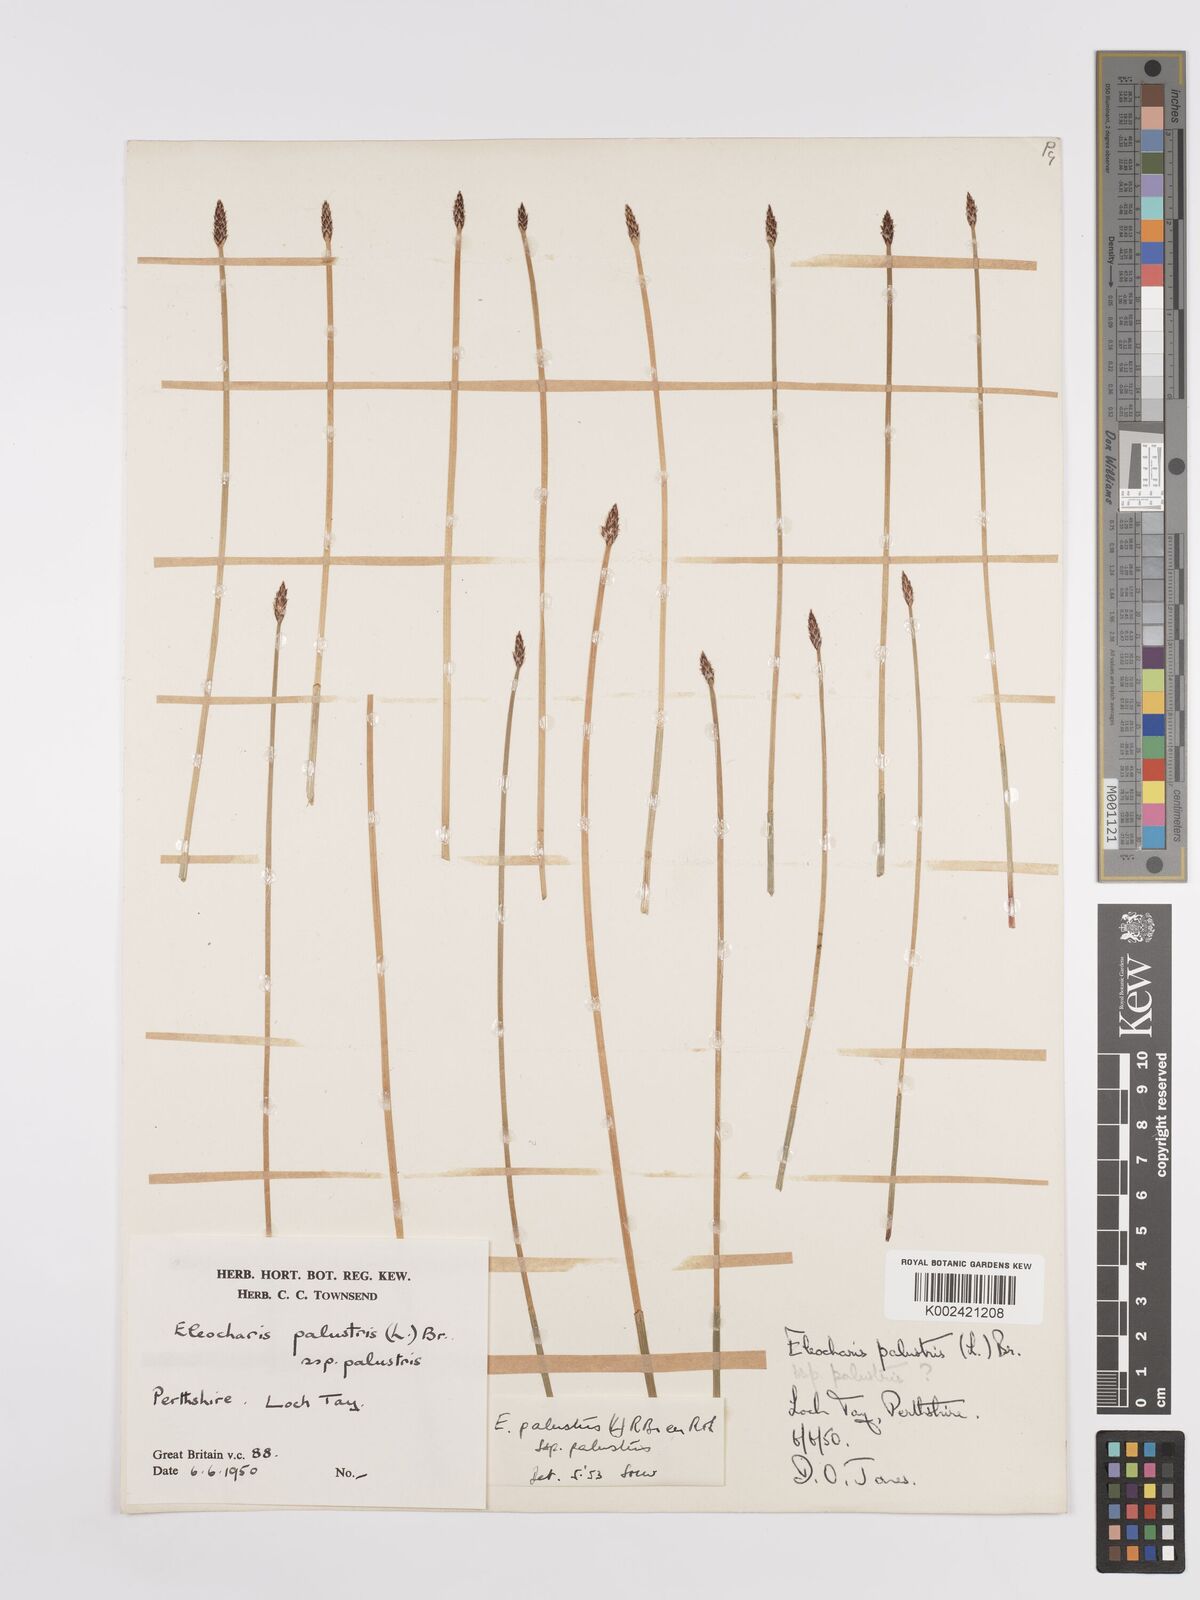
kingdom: Plantae
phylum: Tracheophyta
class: Liliopsida
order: Poales
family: Cyperaceae
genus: Eleocharis
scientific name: Eleocharis palustris
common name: Common spike-rush
